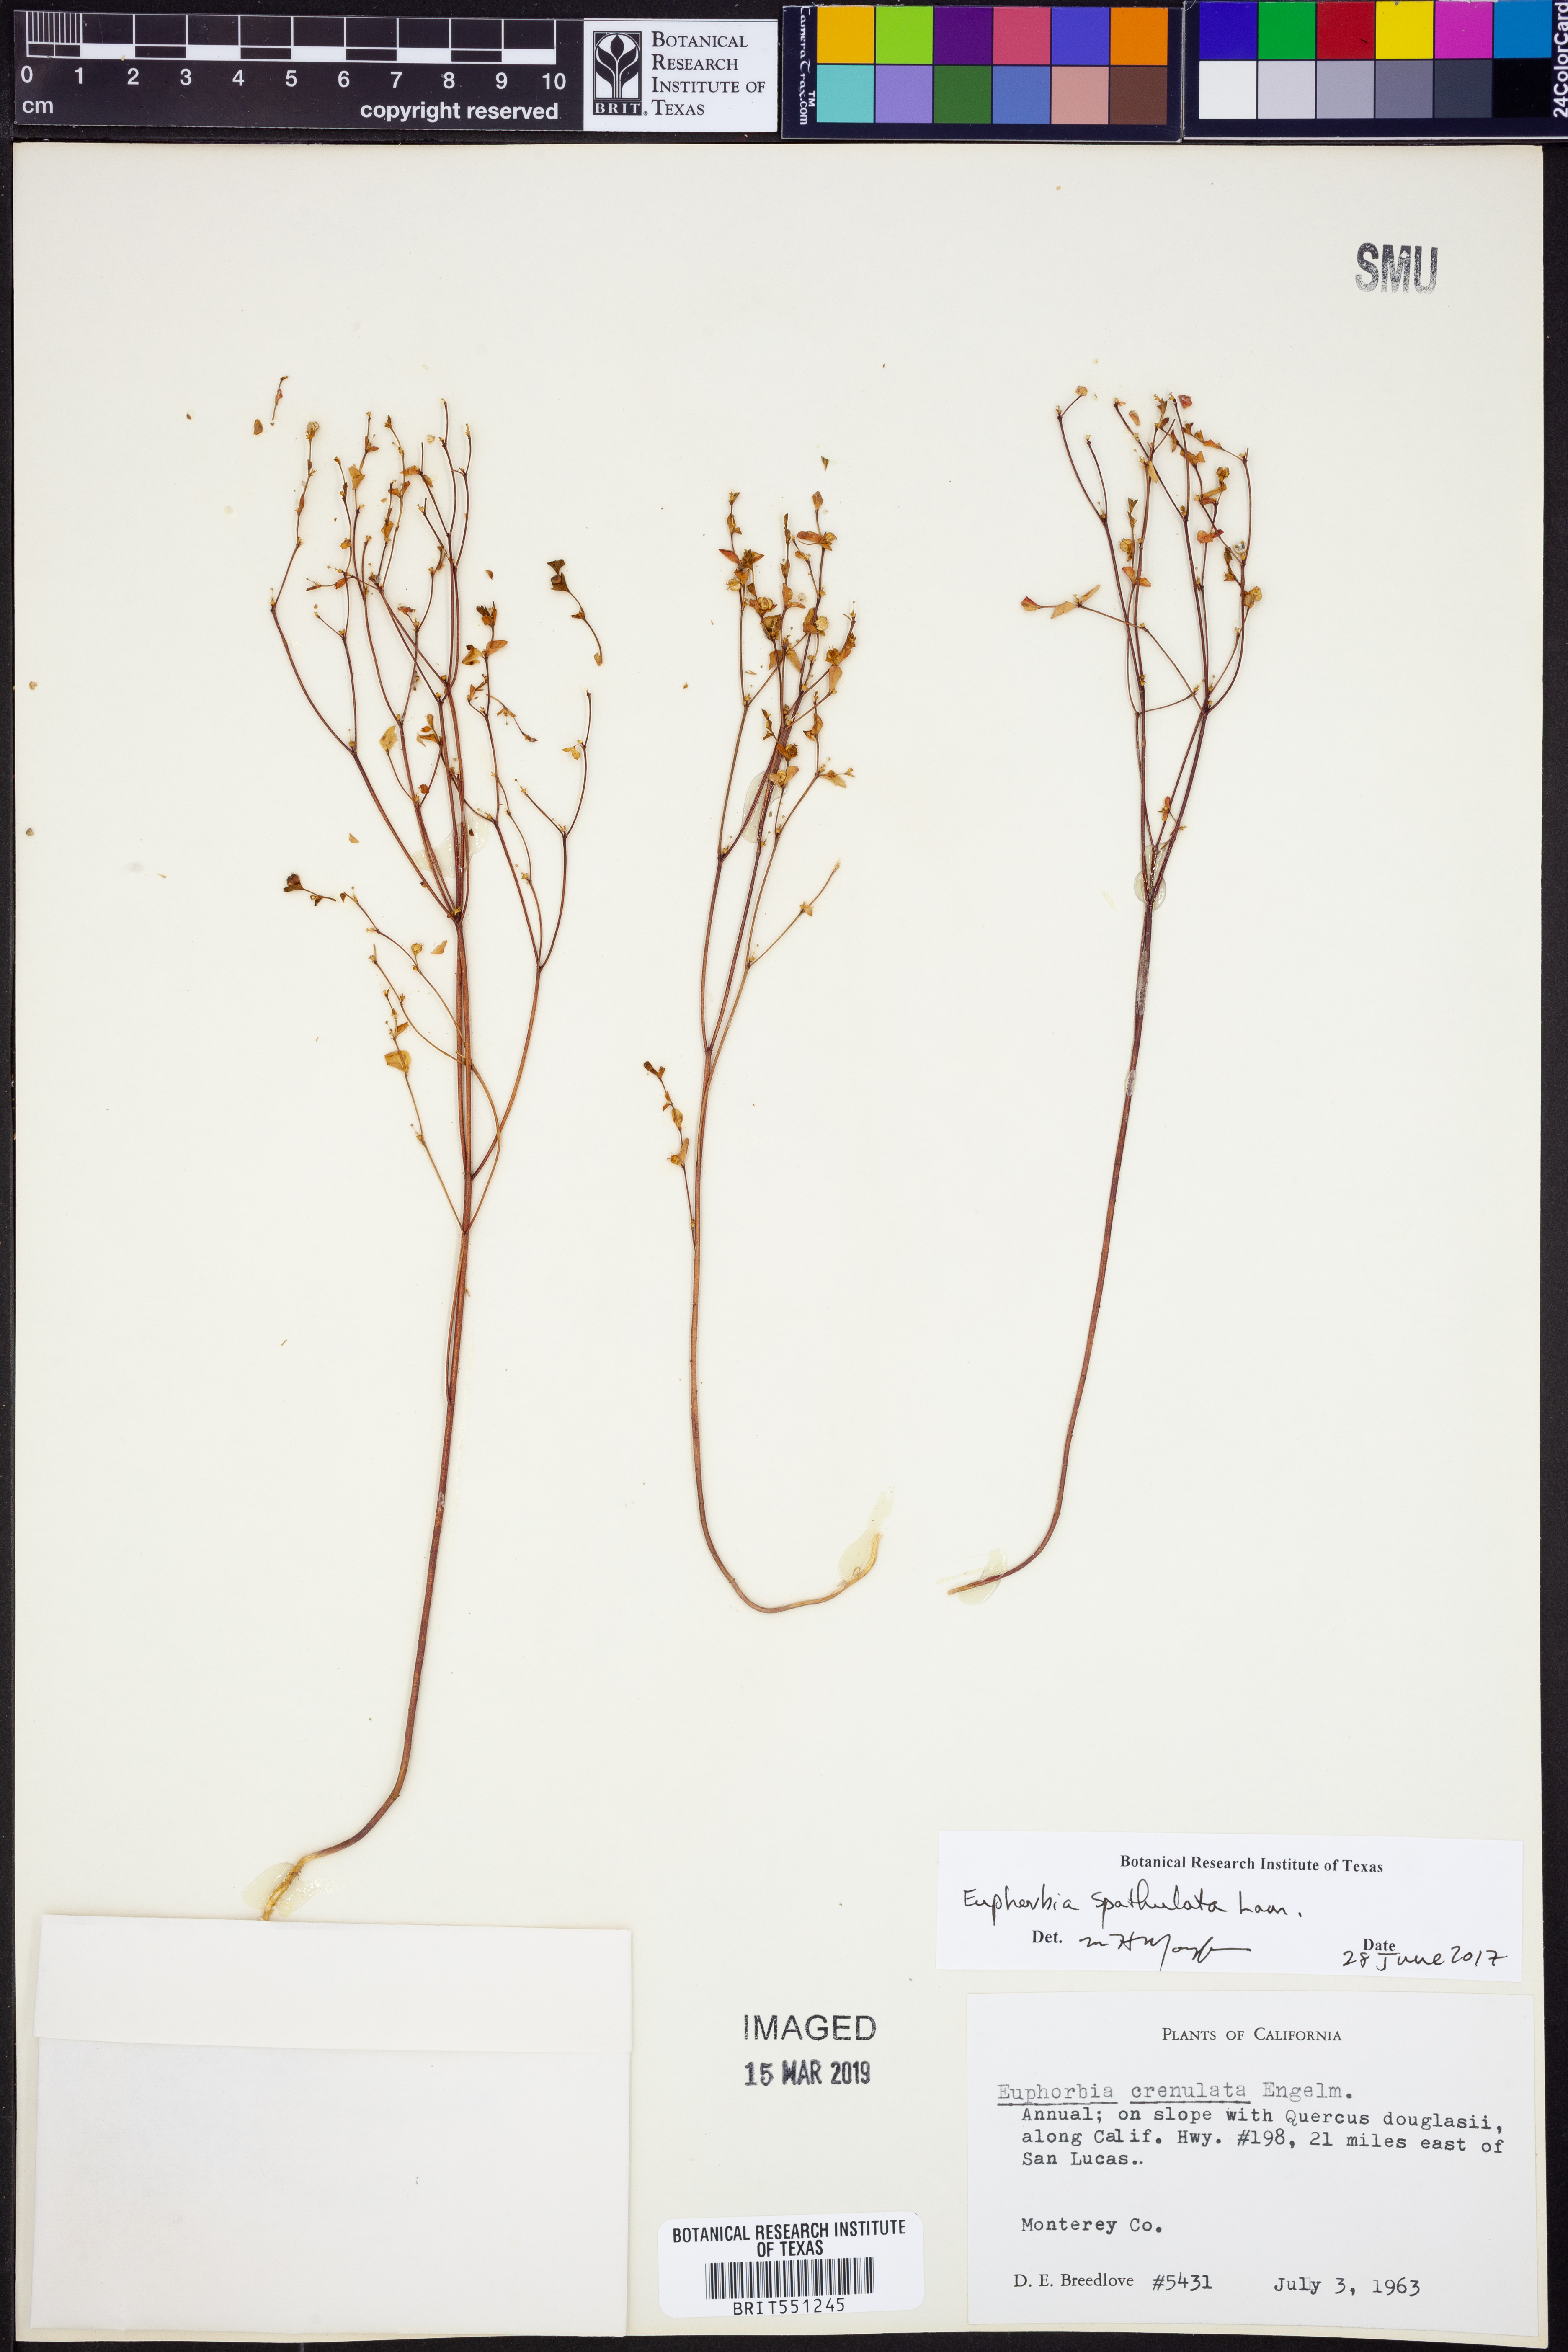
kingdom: Plantae
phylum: Tracheophyta
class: Magnoliopsida
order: Malpighiales
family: Euphorbiaceae
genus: Euphorbia
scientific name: Euphorbia spathulata
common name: Blunt spurge
